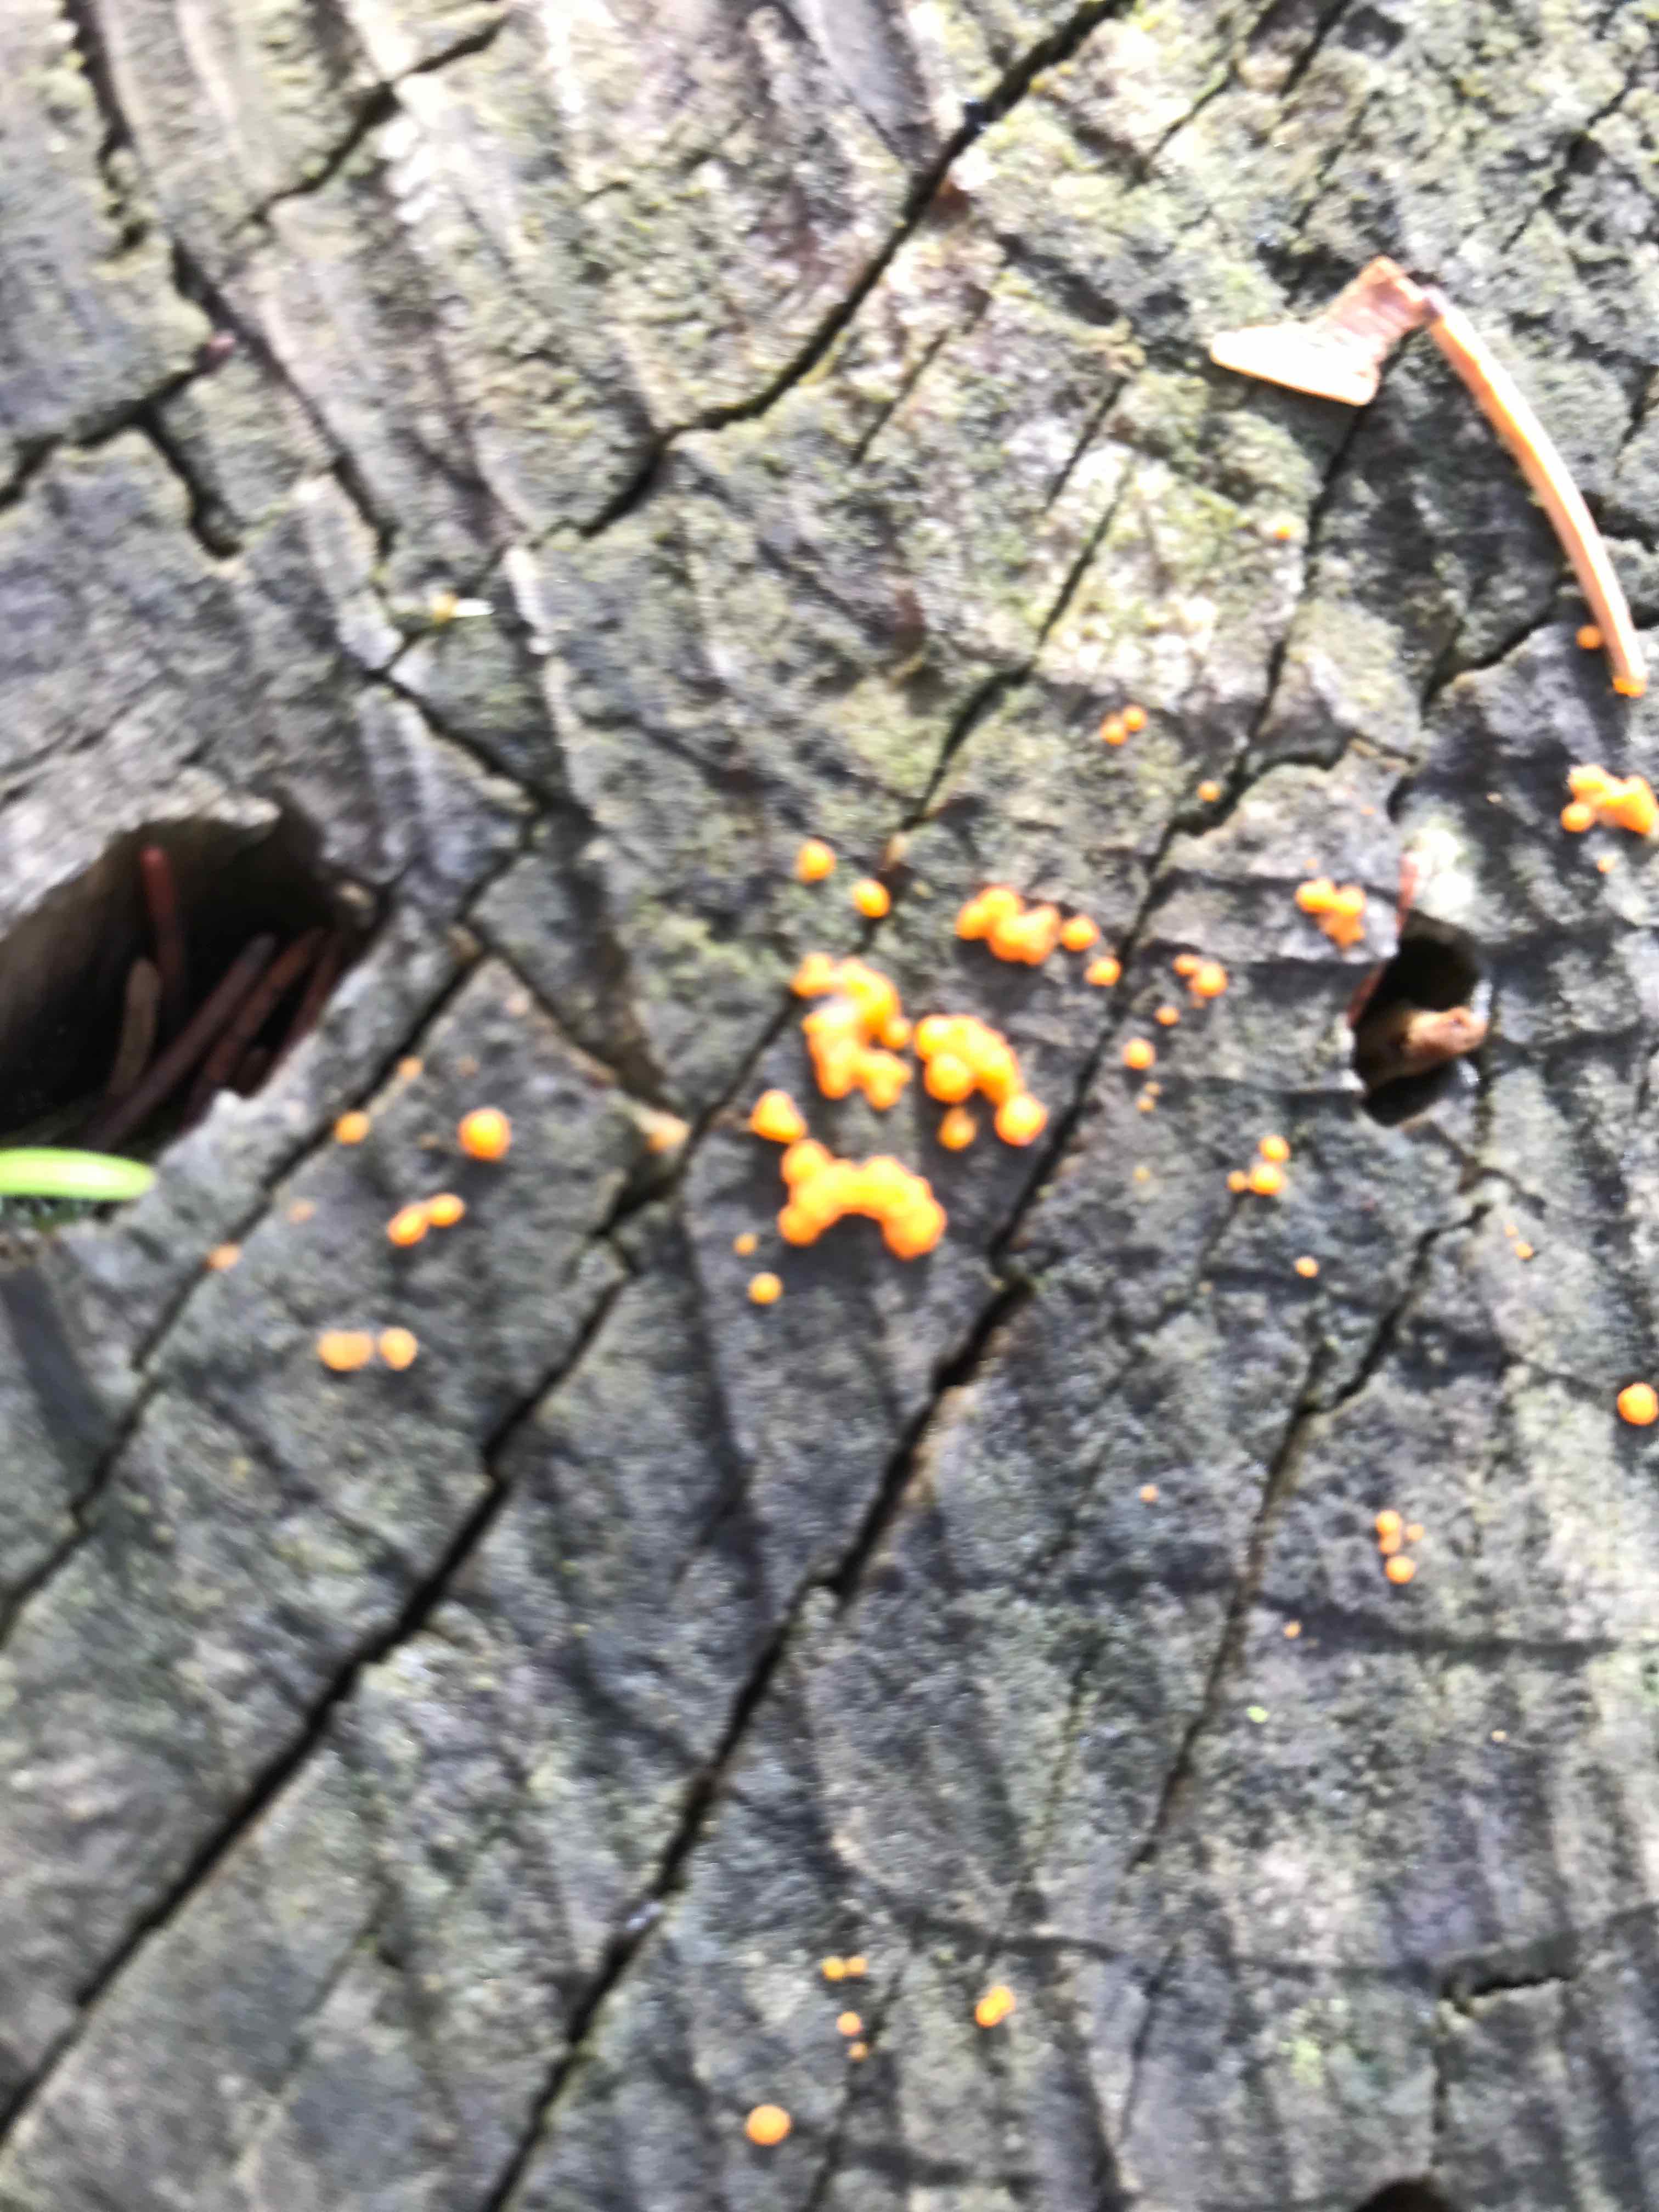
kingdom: Fungi
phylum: Basidiomycota
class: Dacrymycetes
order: Dacrymycetales
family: Dacrymycetaceae
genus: Dacrymyces
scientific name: Dacrymyces stillatus
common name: almindelig tåresvamp
